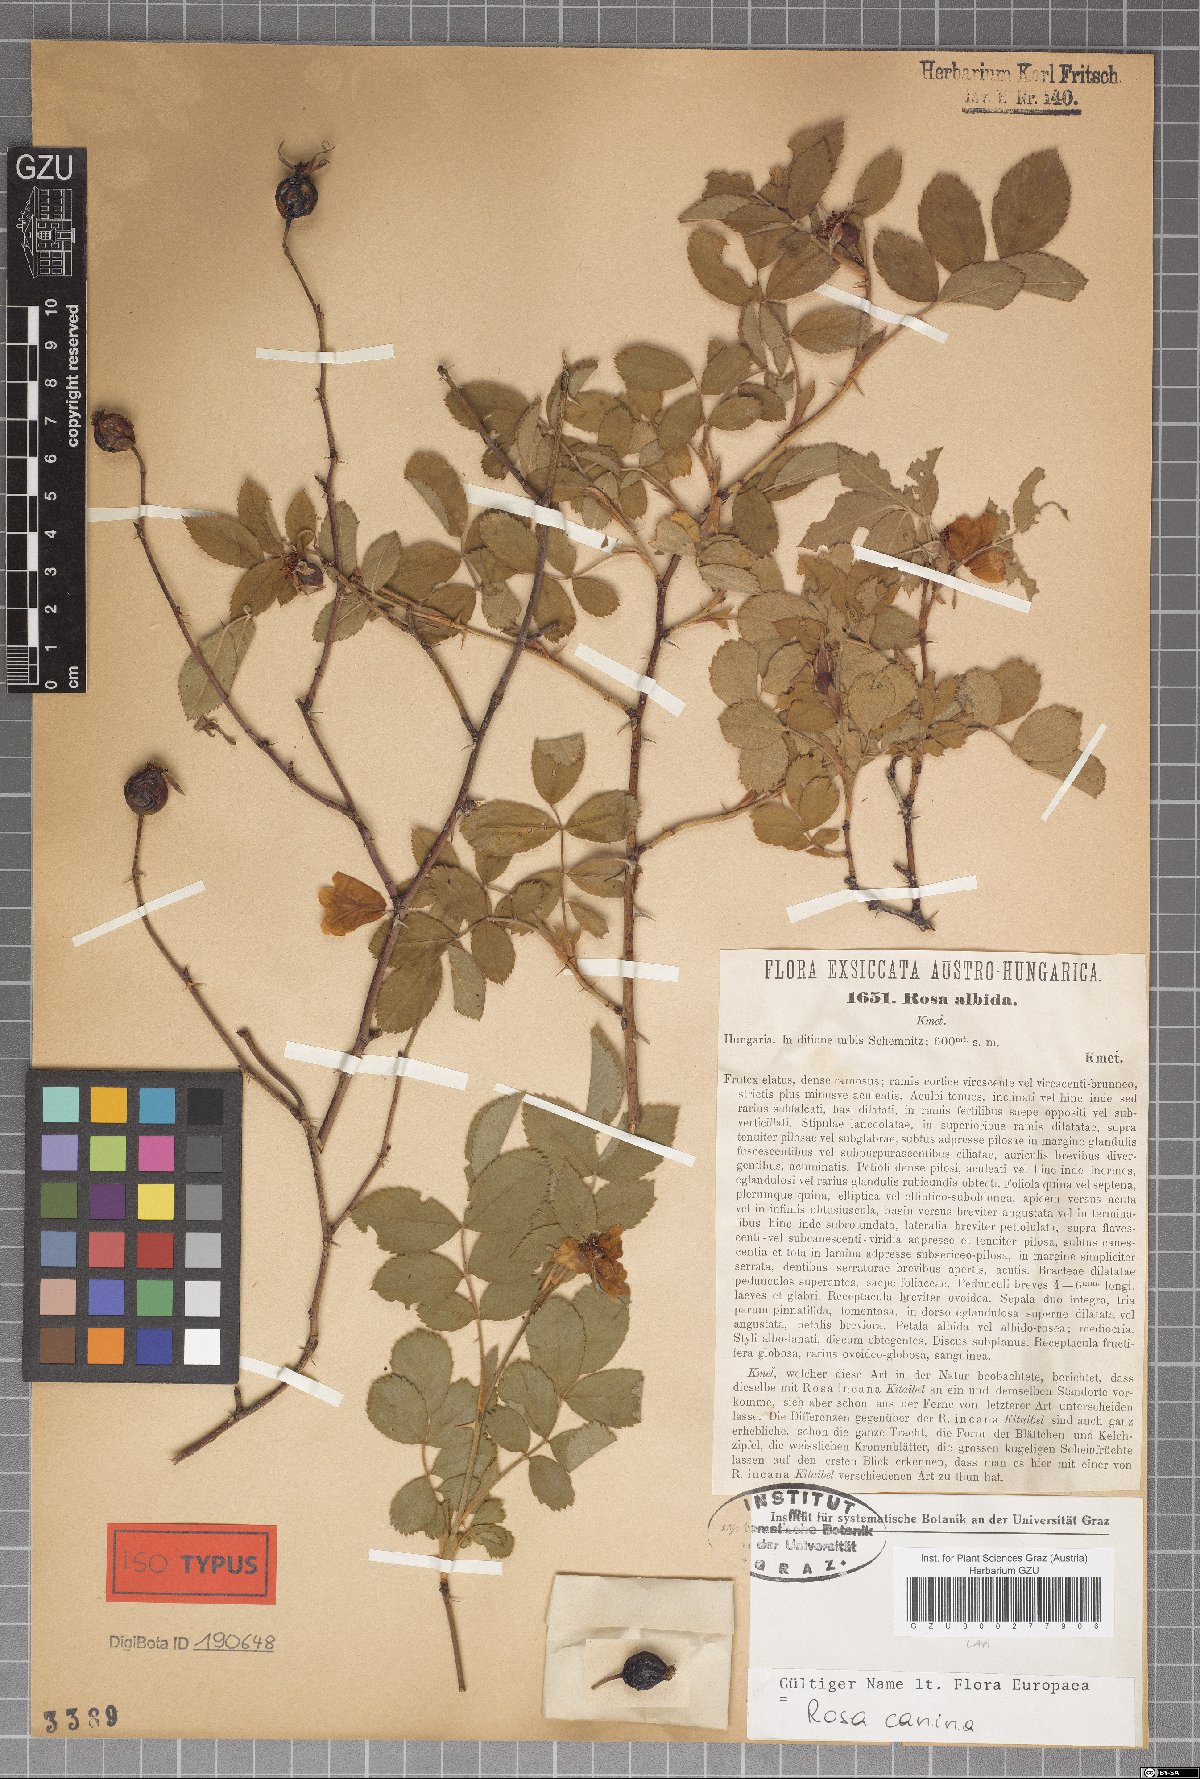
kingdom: Plantae
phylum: Tracheophyta
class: Magnoliopsida
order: Rosales
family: Rosaceae
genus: Rosa
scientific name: Rosa caesia
